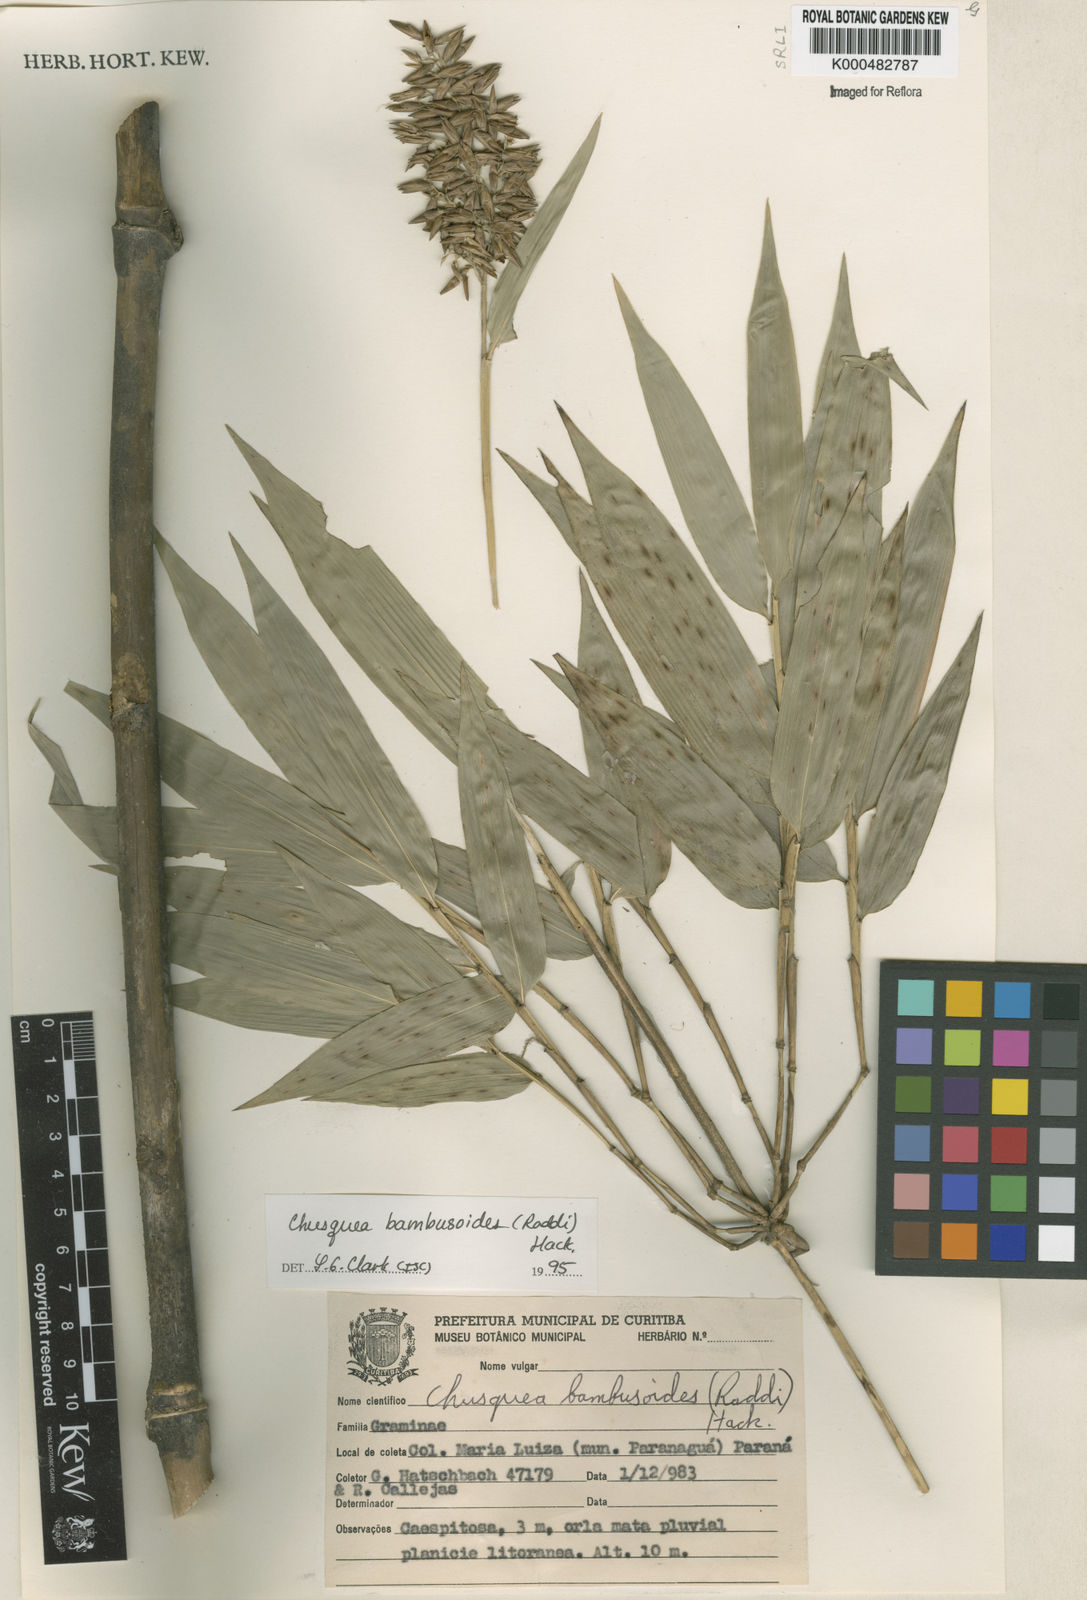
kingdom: Plantae
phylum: Tracheophyta
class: Liliopsida
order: Poales
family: Poaceae
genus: Chusquea
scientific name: Chusquea bambusoides
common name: Brazil scrambling bamboo
